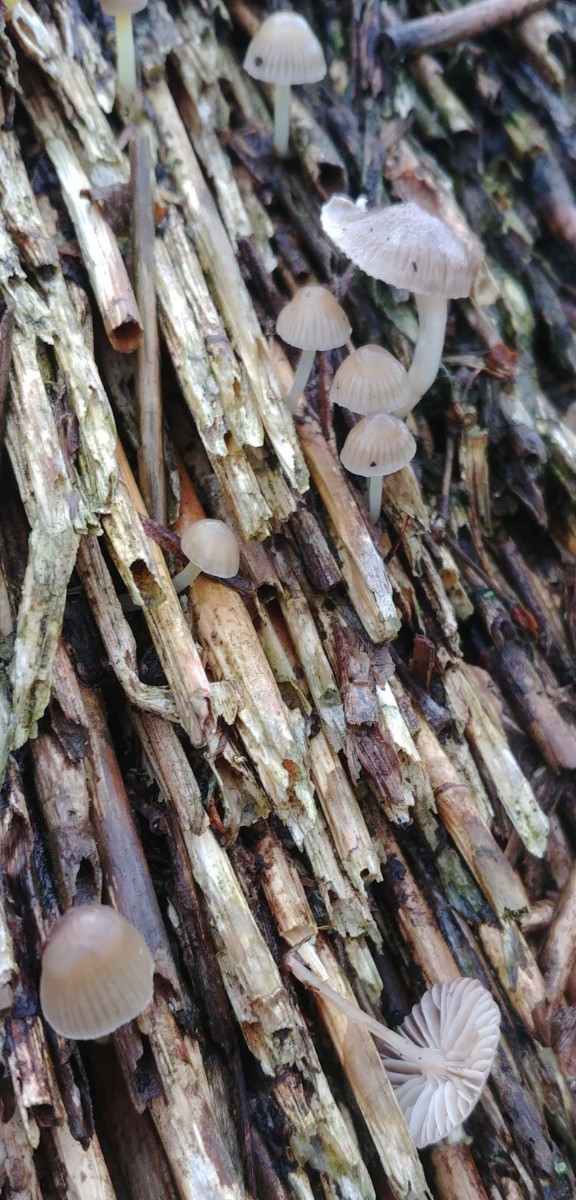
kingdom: Fungi
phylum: Basidiomycota
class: Agaricomycetes
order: Agaricales
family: Mycenaceae
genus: Mycena
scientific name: Mycena epipterygia
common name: gulstokket huesvamp
